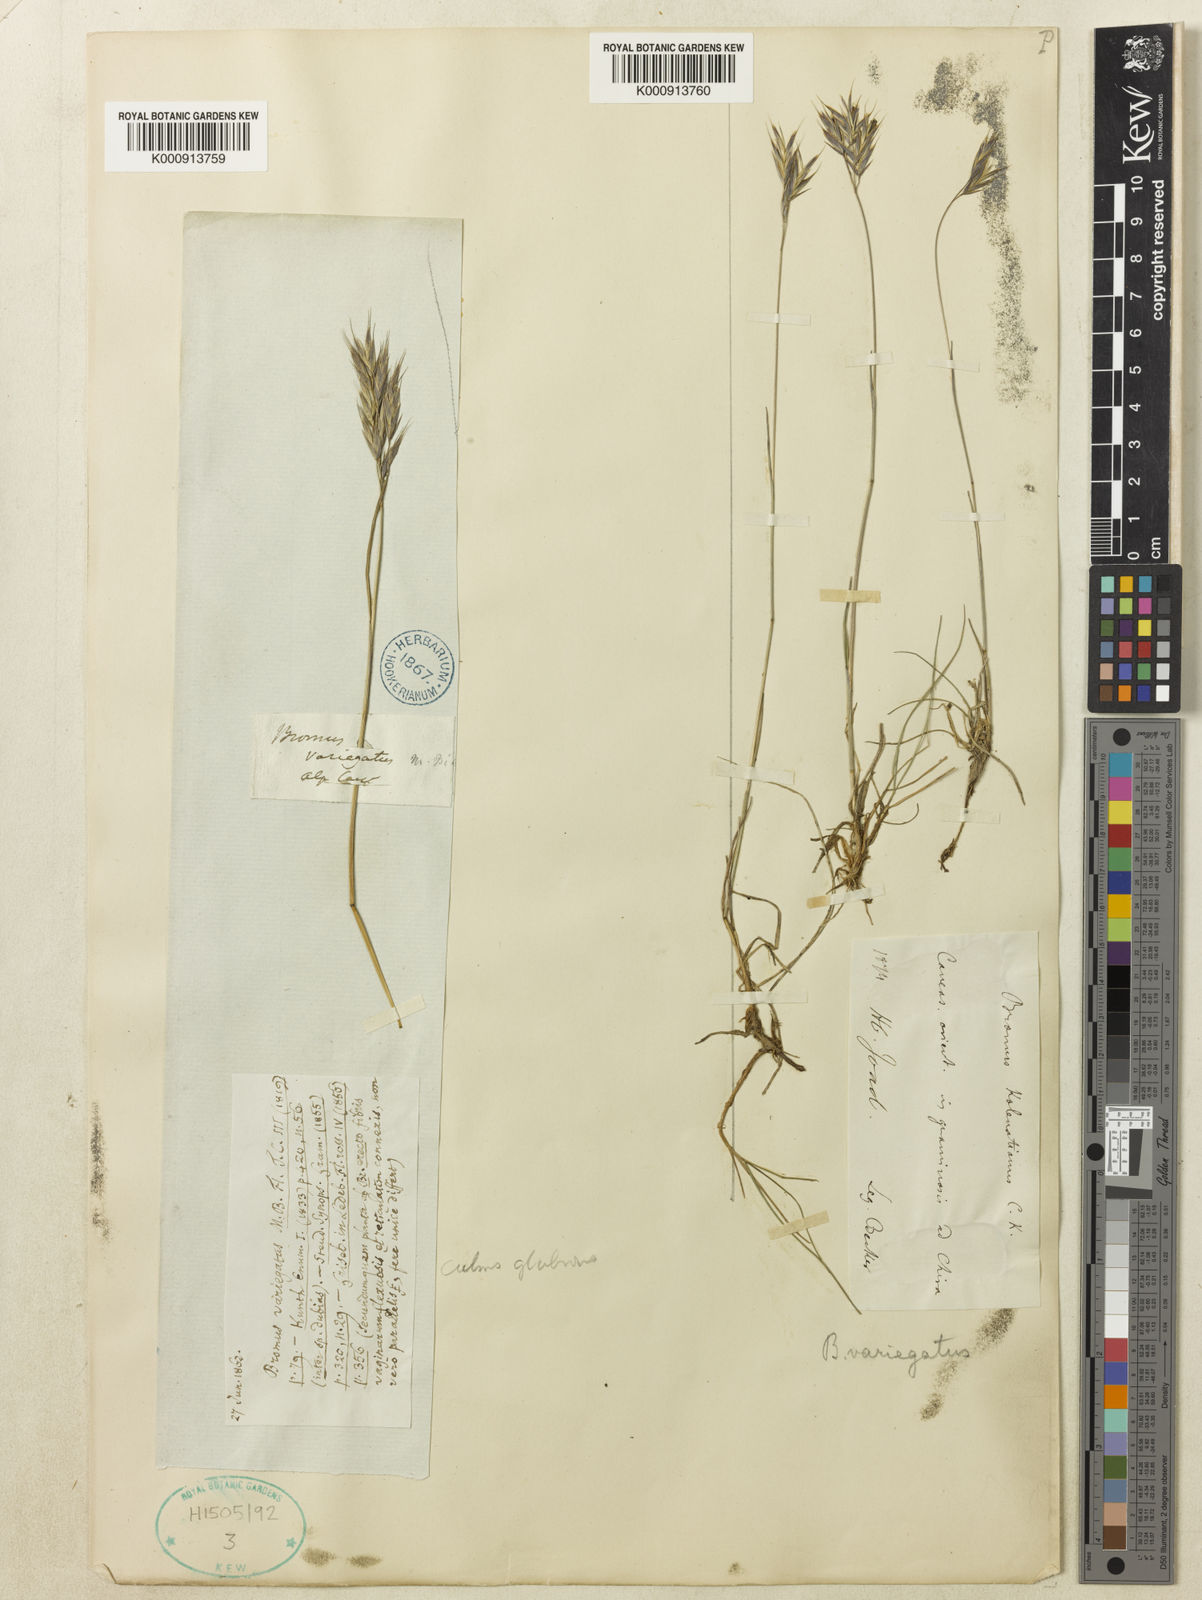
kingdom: Plantae
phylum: Tracheophyta
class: Liliopsida
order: Poales
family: Poaceae
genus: Bromus
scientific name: Bromus variegatus
